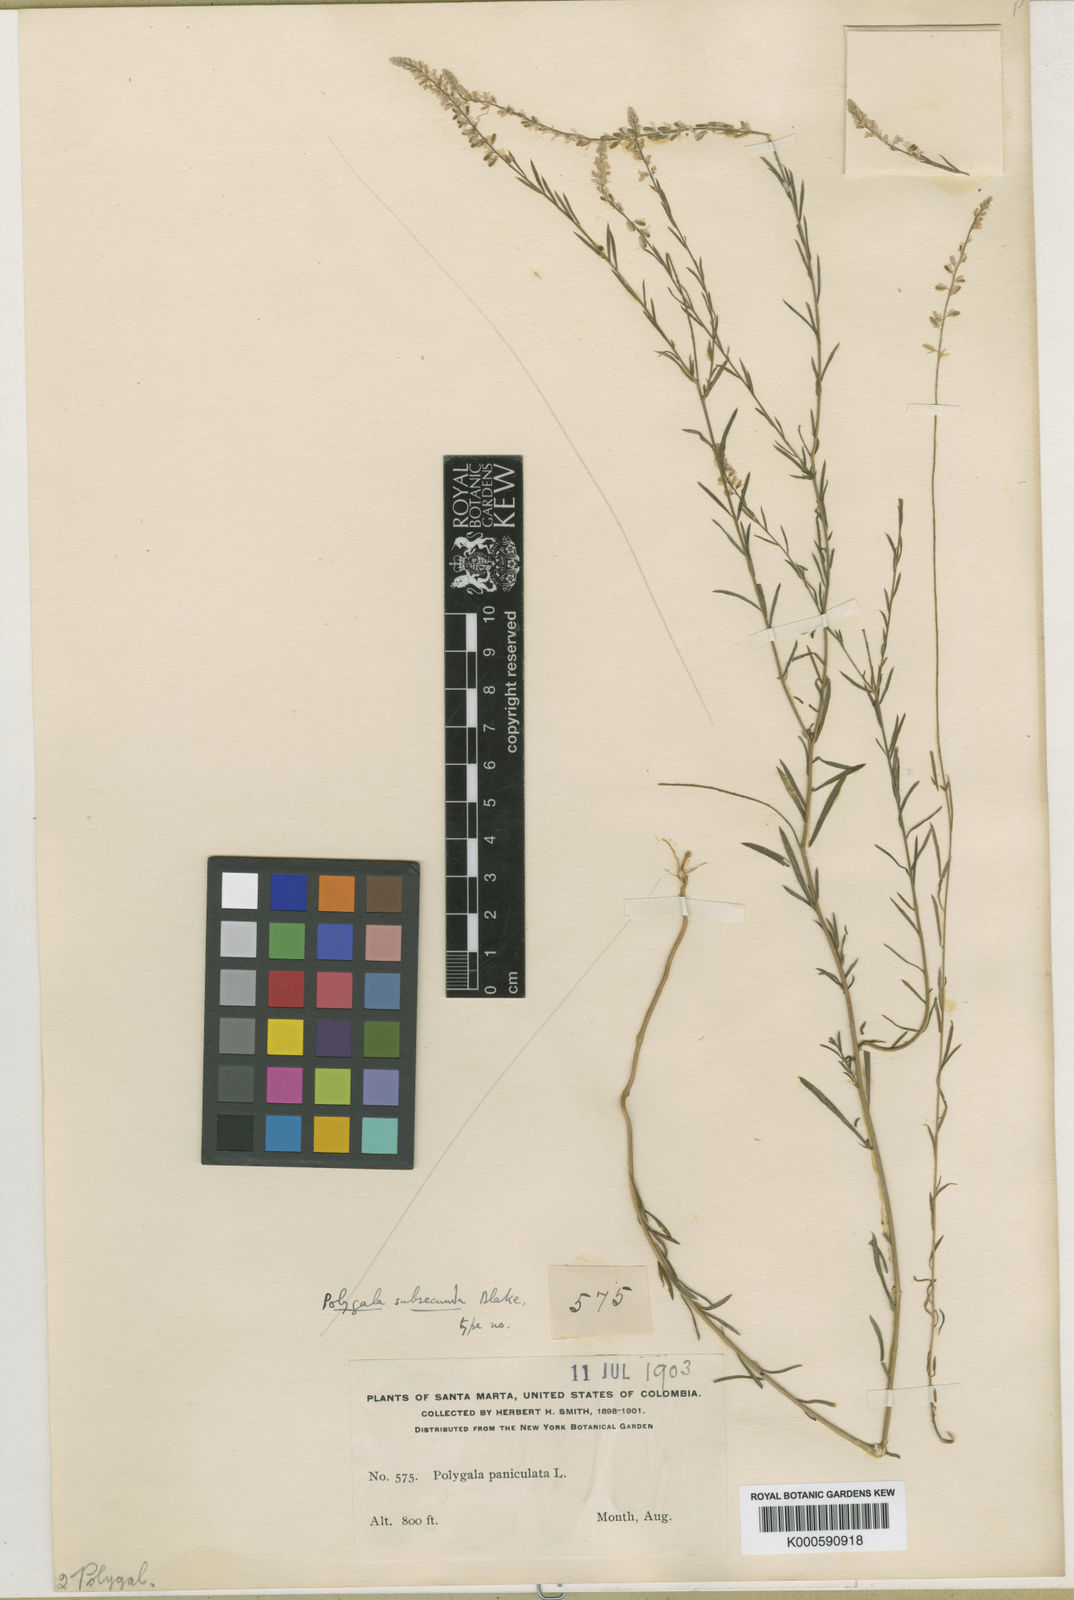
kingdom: Plantae
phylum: Tracheophyta
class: Magnoliopsida
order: Fabales
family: Polygalaceae
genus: Polygala
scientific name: Polygala paniculata
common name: Orosne
